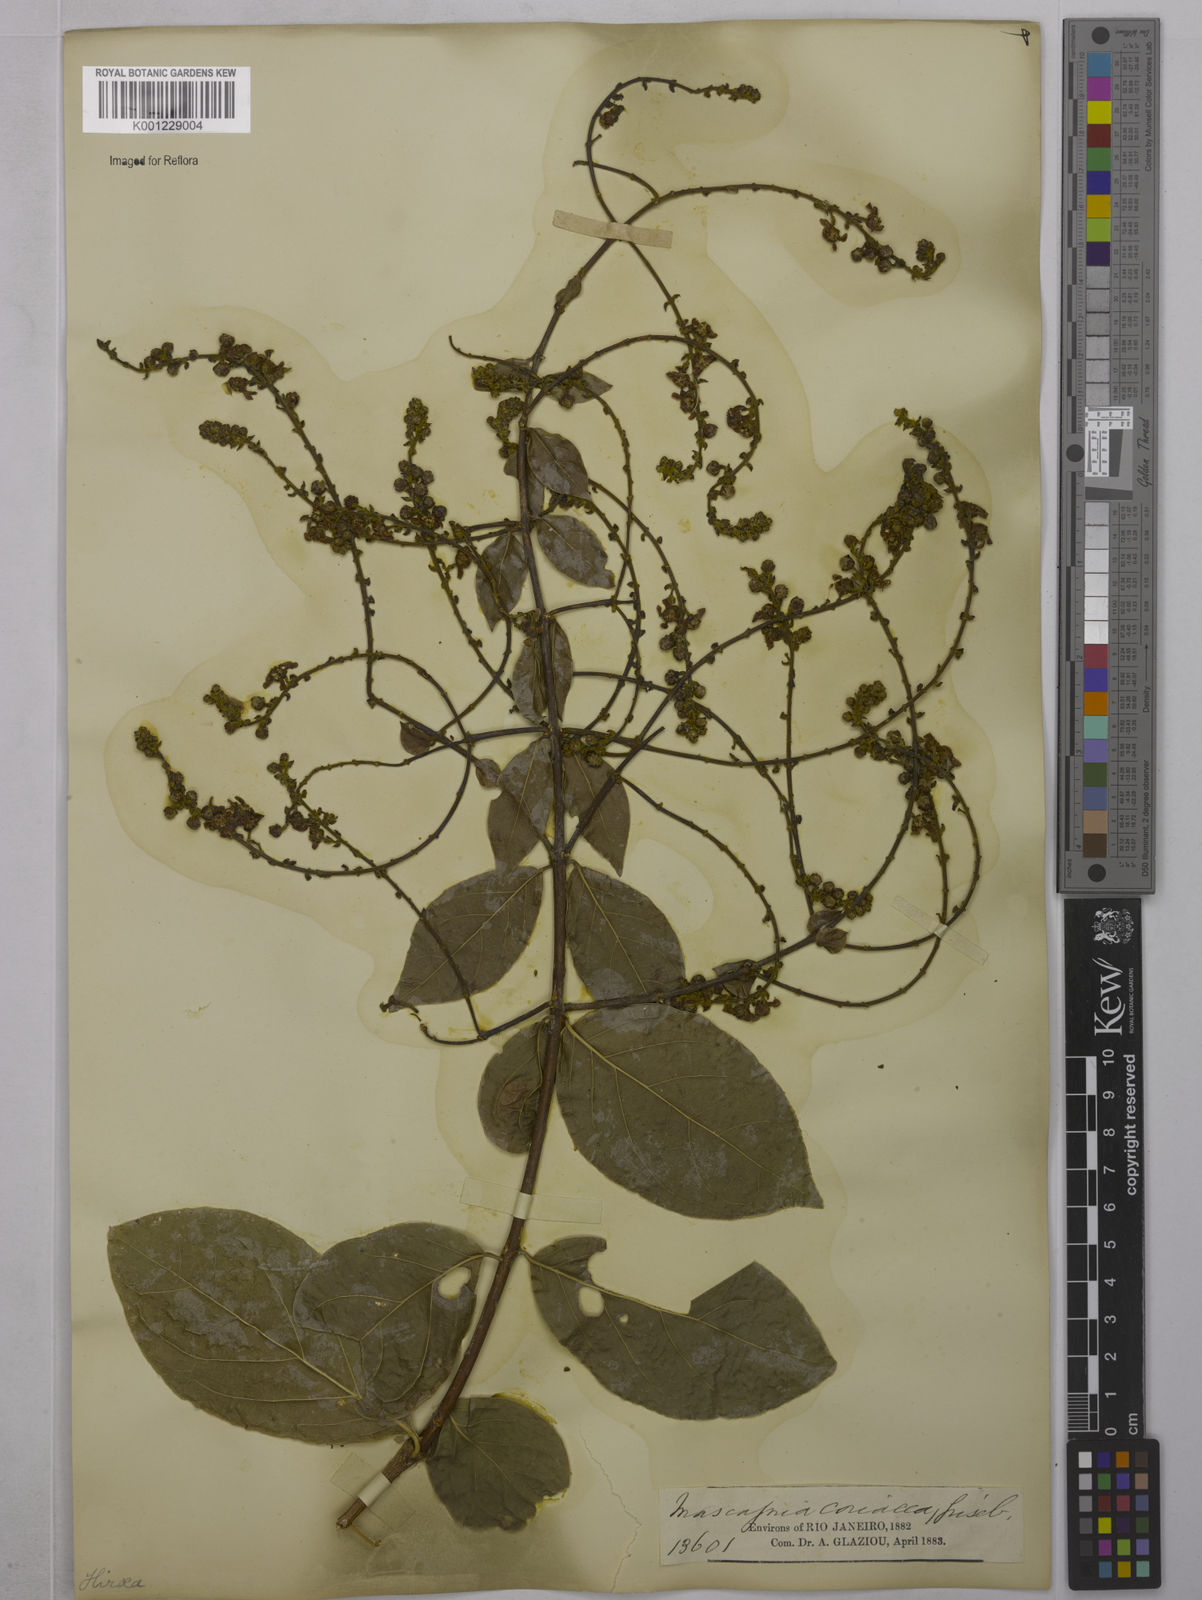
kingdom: Plantae
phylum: Tracheophyta
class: Magnoliopsida
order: Malpighiales
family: Malpighiaceae
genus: Amorimia
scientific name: Amorimia rigida
